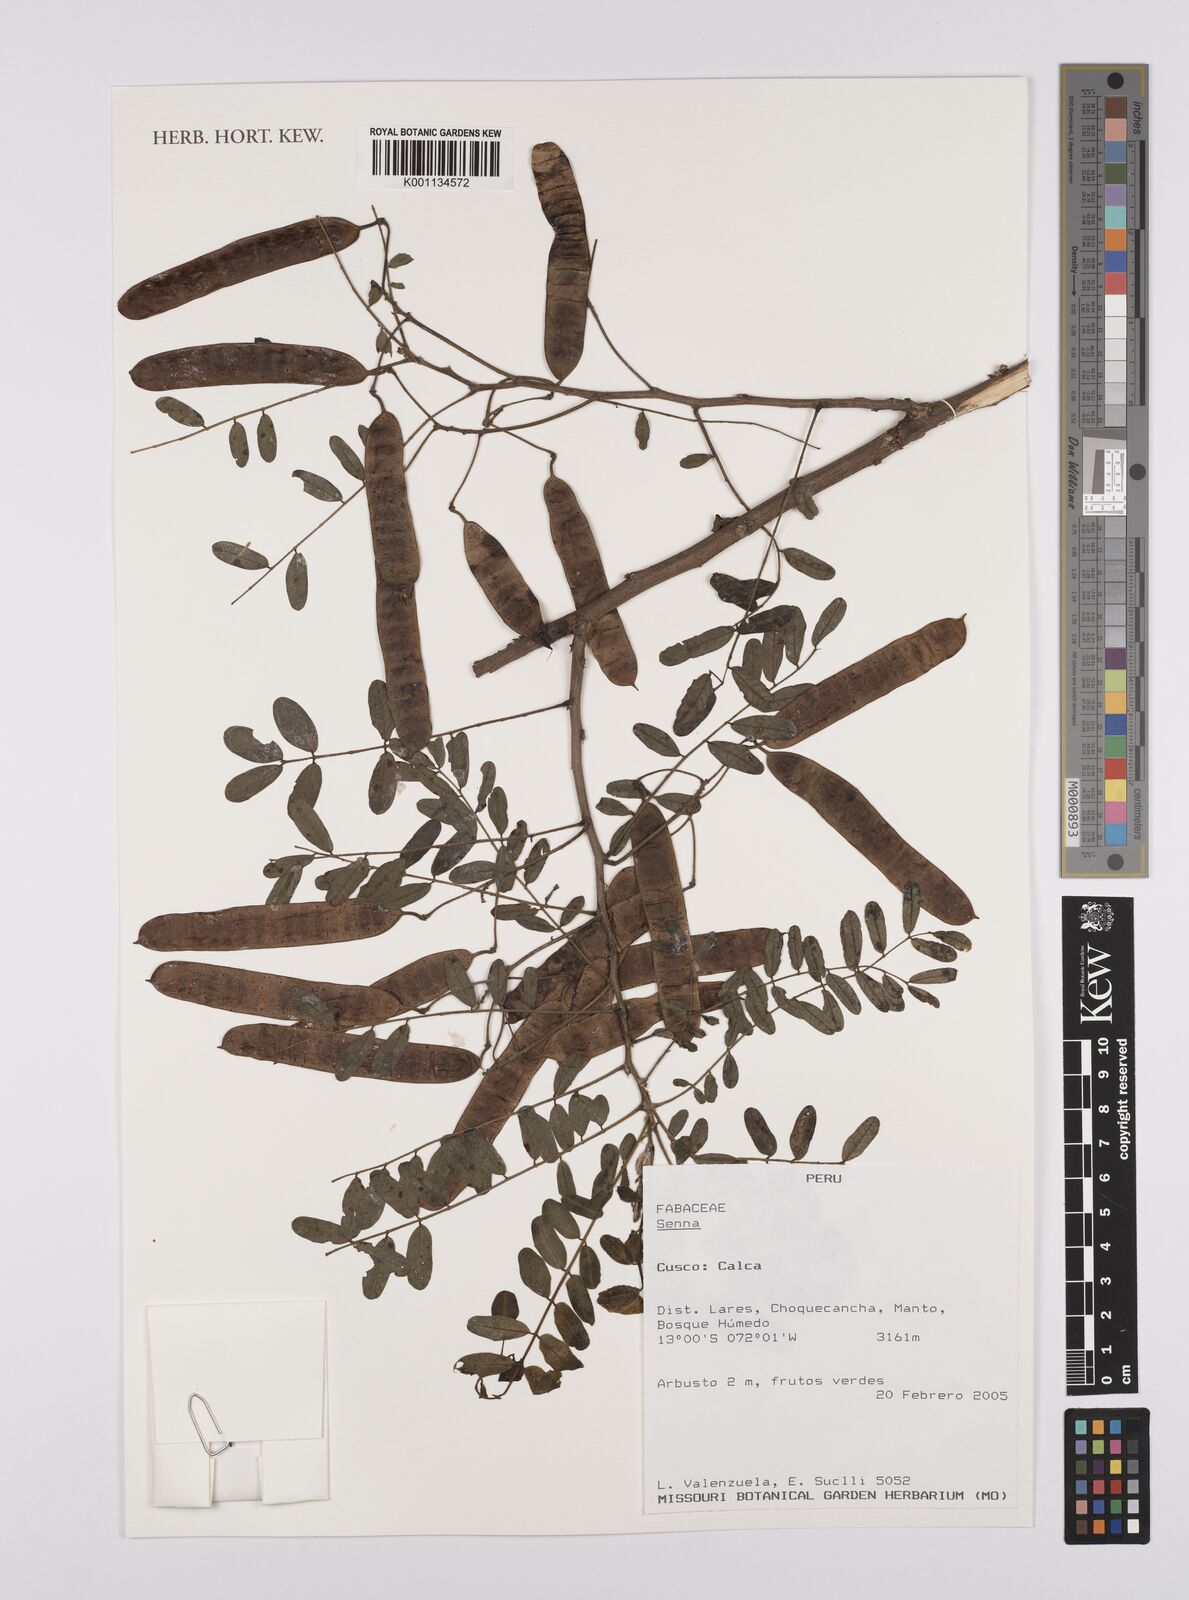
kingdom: Plantae
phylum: Tracheophyta
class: Magnoliopsida
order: Fabales
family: Fabaceae
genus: Senna
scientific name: Senna
